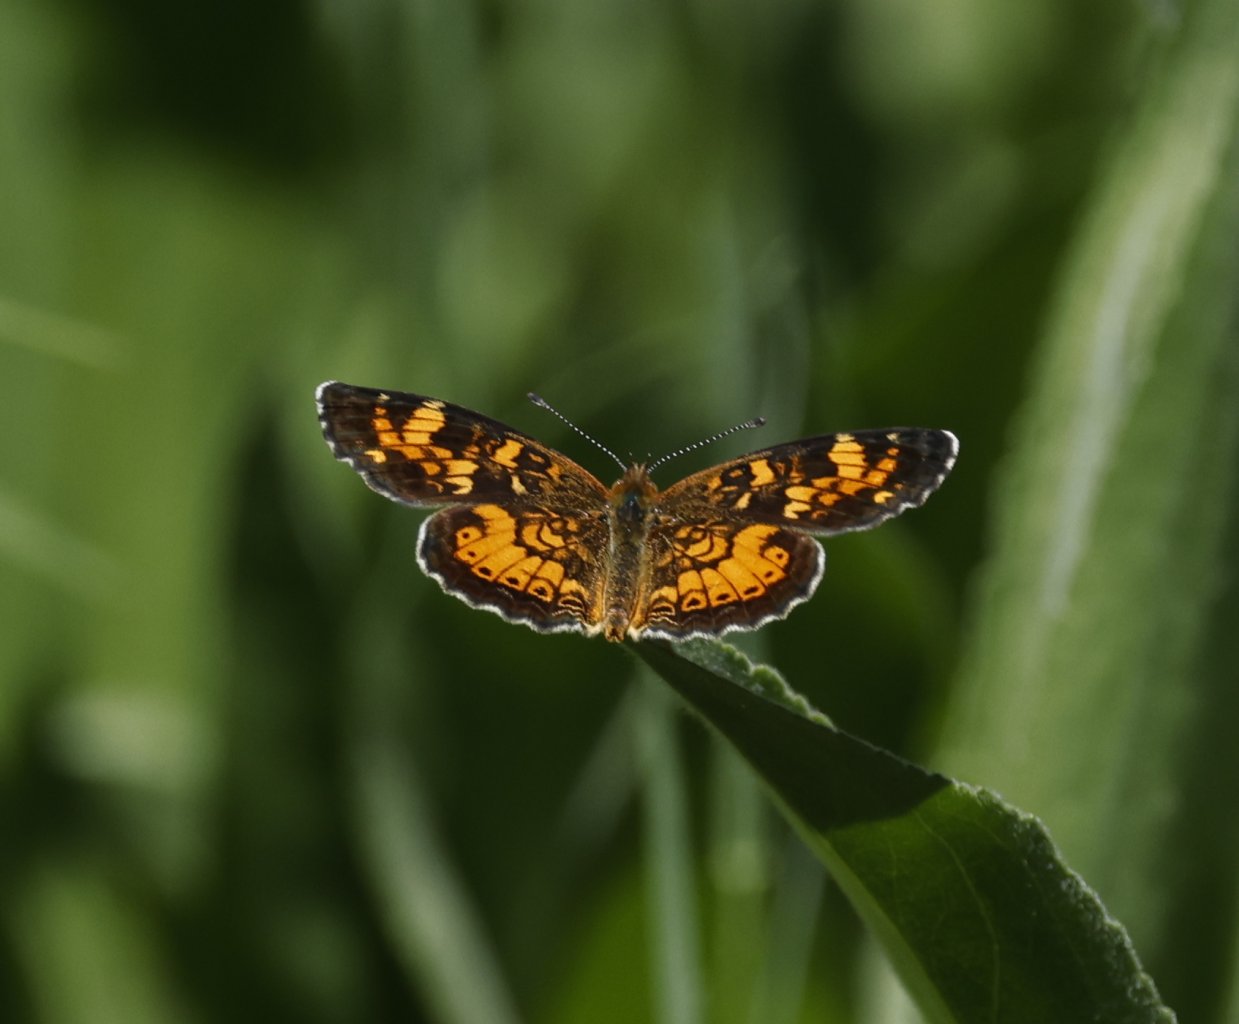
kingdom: Animalia
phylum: Arthropoda
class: Insecta
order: Lepidoptera
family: Nymphalidae
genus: Phyciodes
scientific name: Phyciodes tharos
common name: Northern Crescent
